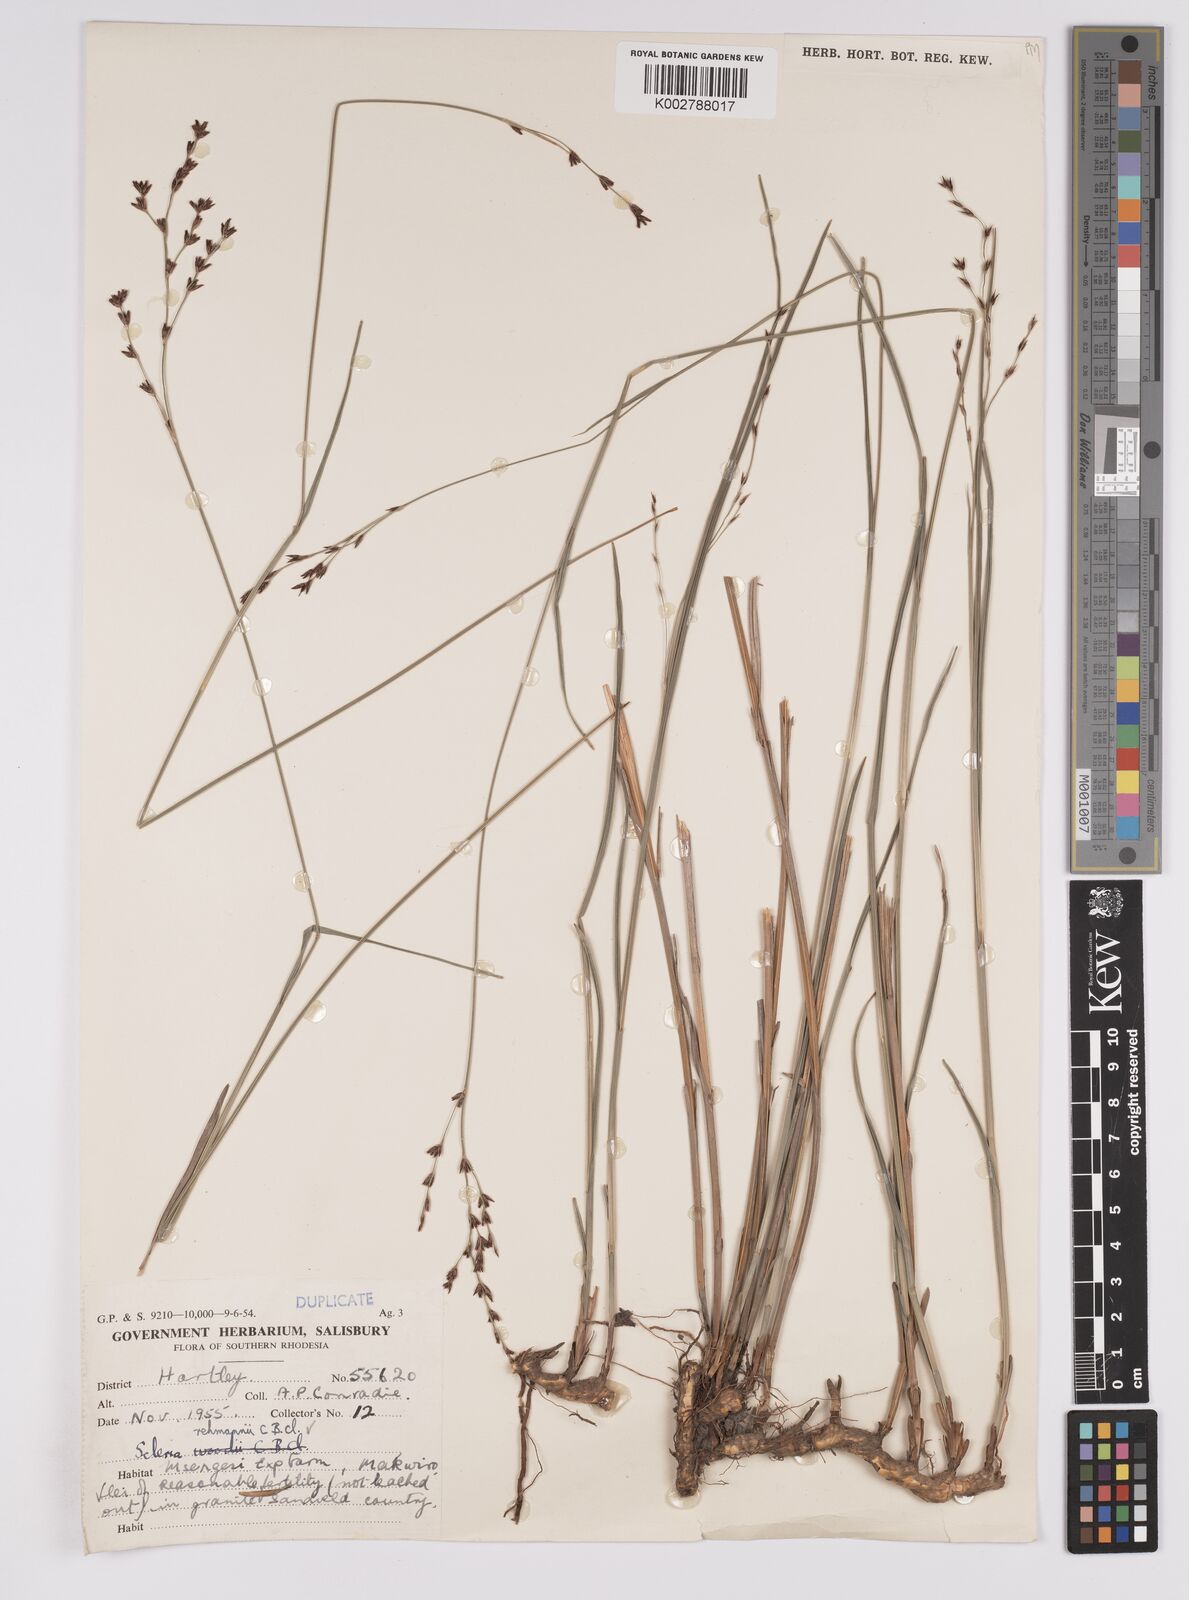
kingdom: Plantae
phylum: Tracheophyta
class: Liliopsida
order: Poales
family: Cyperaceae
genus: Scleria
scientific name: Scleria rehmannii
